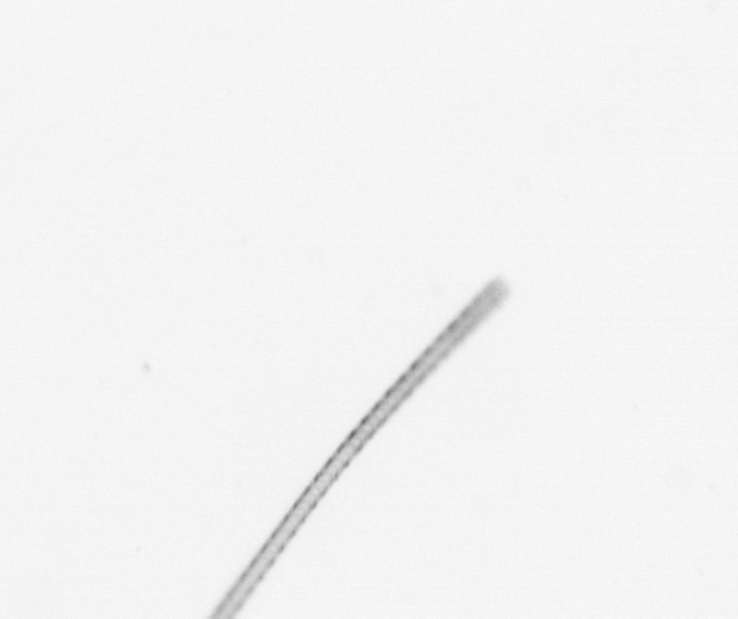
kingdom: Chromista
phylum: Ochrophyta
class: Bacillariophyceae
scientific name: Bacillariophyceae
